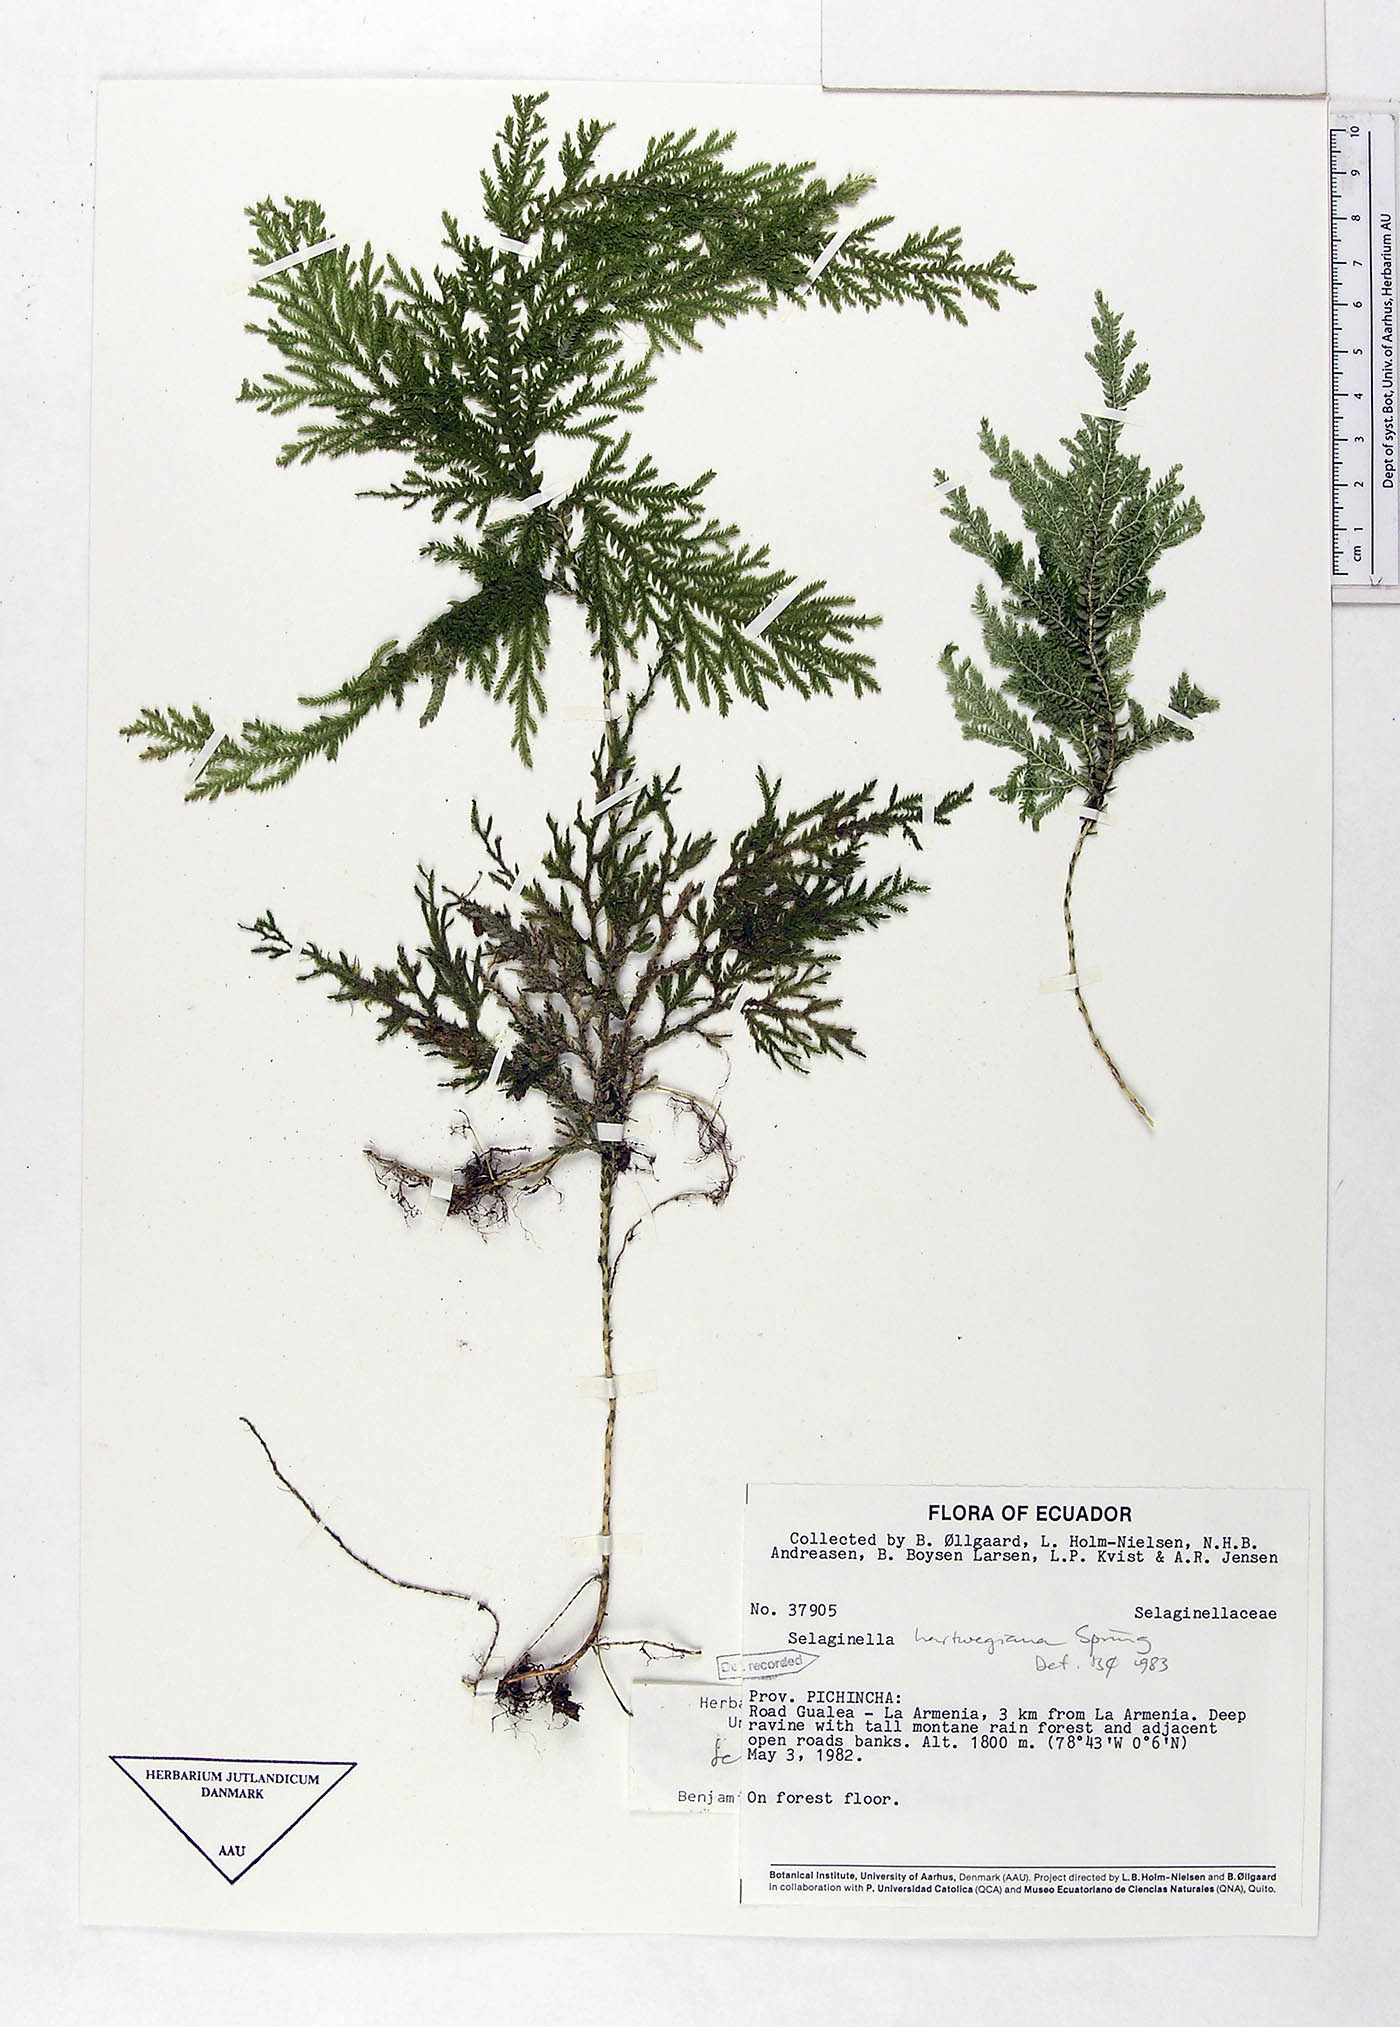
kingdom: Plantae
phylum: Tracheophyta
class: Lycopodiopsida
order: Selaginellales
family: Selaginellaceae
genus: Selaginella
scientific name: Selaginella hartwegiana
